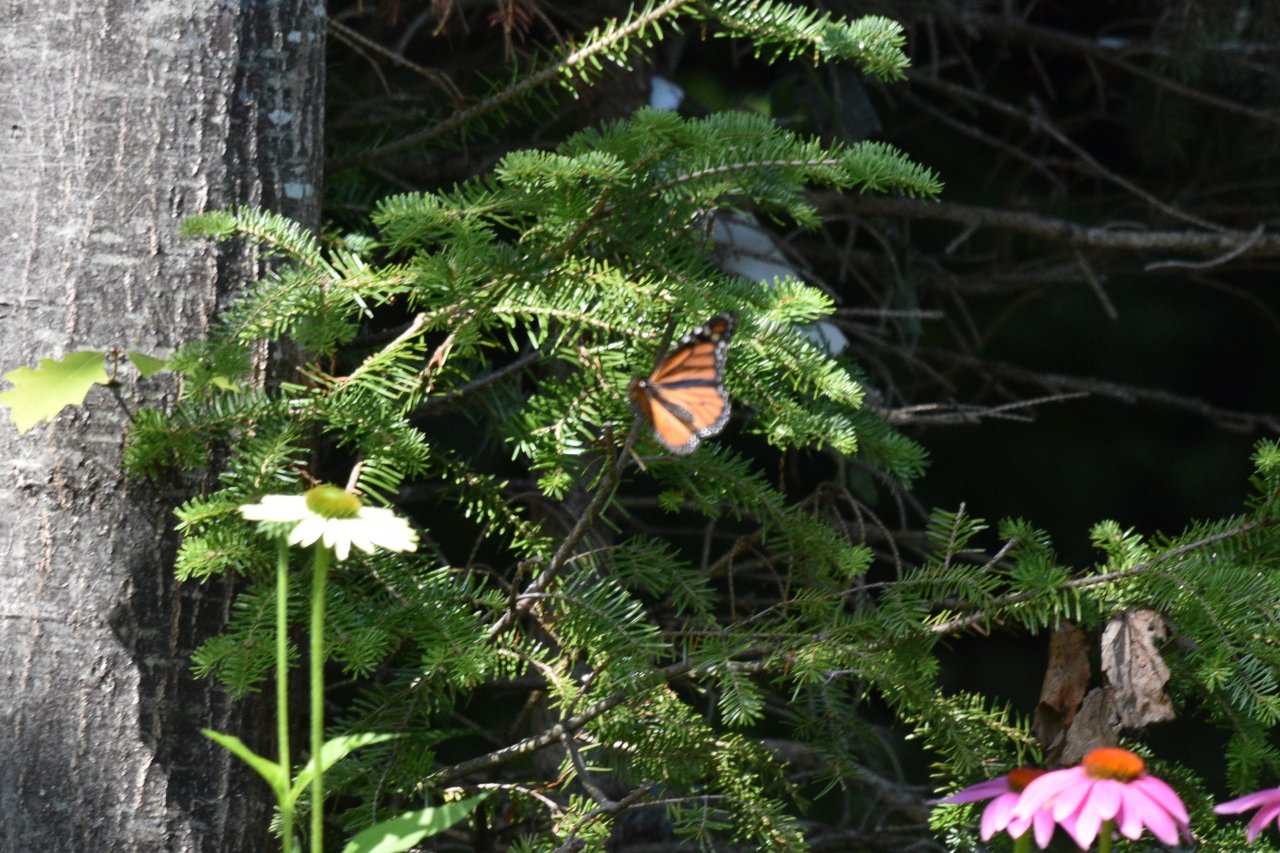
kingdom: Animalia
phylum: Arthropoda
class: Insecta
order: Lepidoptera
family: Nymphalidae
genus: Danaus
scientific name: Danaus plexippus
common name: Monarch
